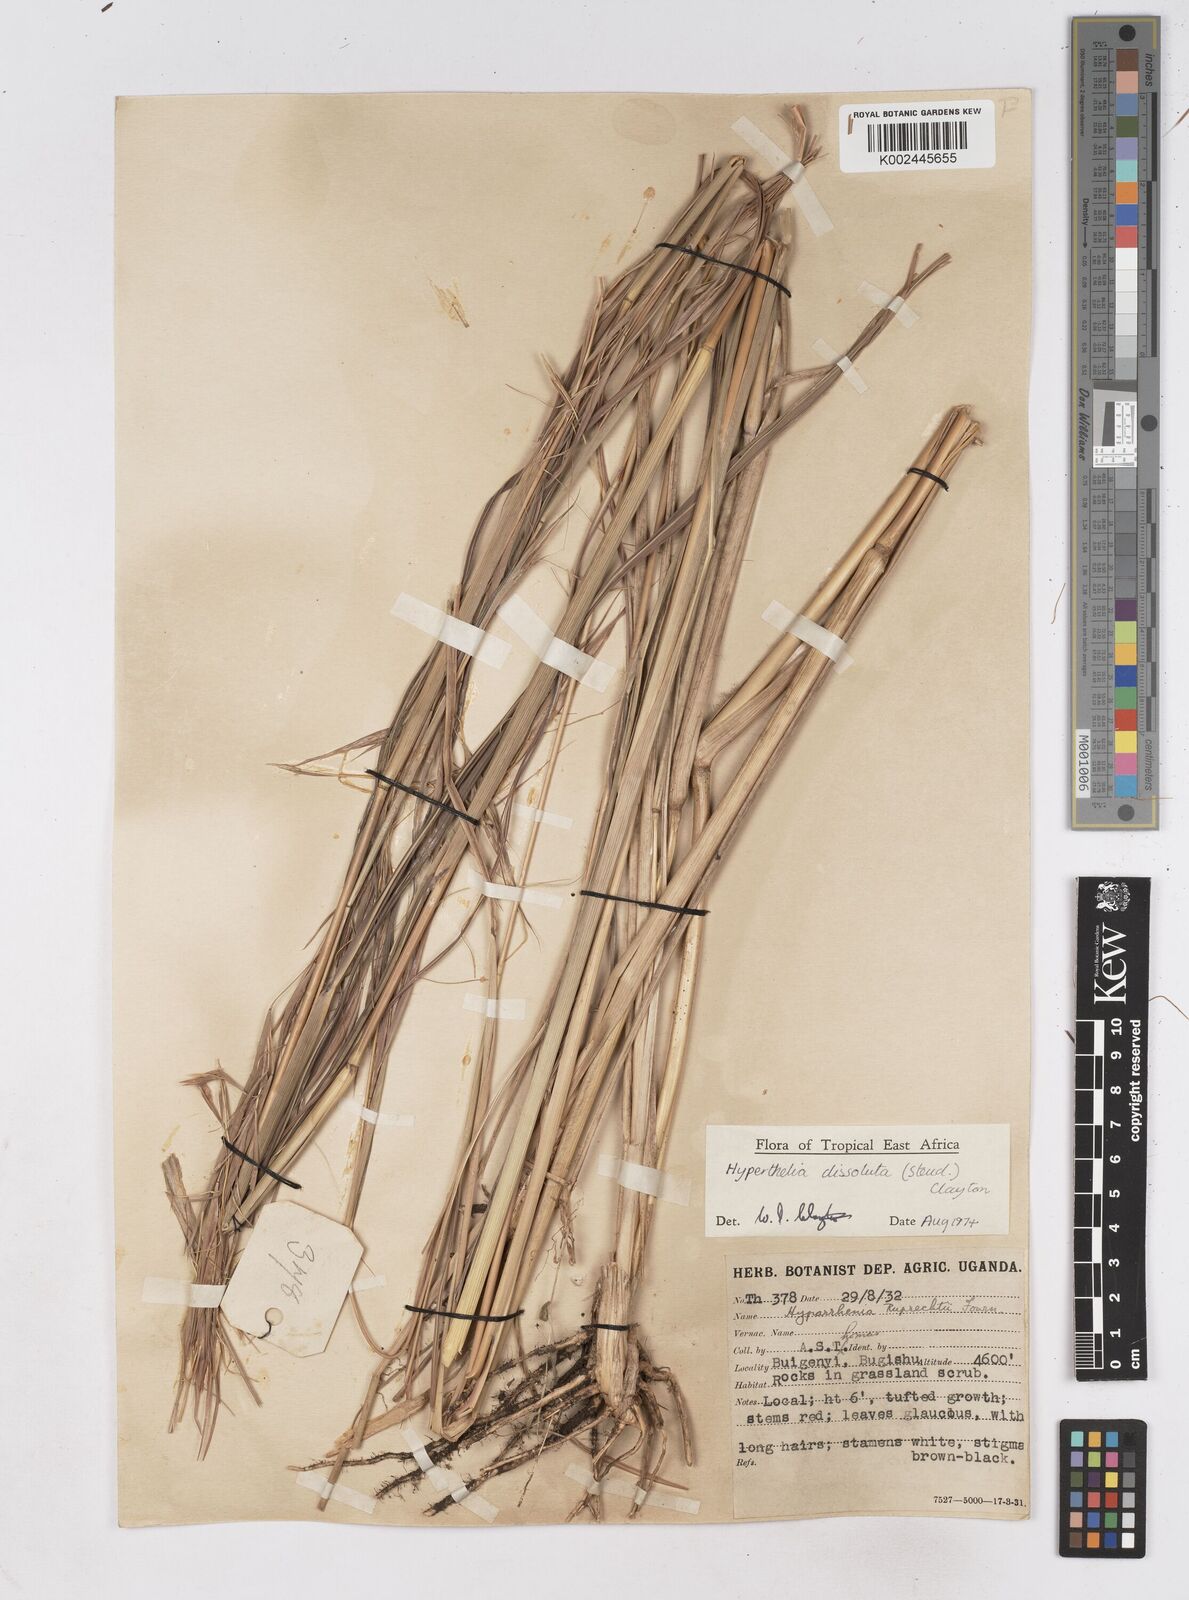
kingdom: Plantae
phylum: Tracheophyta
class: Liliopsida
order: Poales
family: Poaceae
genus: Hyperthelia
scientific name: Hyperthelia dissoluta
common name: Yellow thatching grass
